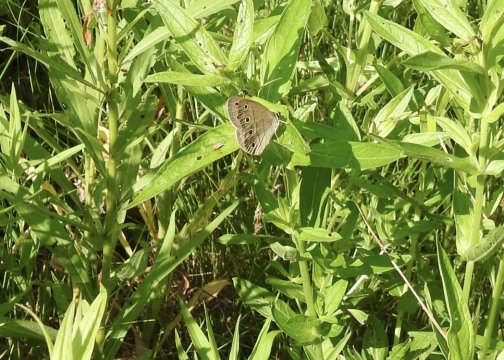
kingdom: Animalia
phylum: Arthropoda
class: Insecta
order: Lepidoptera
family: Nymphalidae
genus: Euptychia
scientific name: Euptychia cymela
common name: Little Wood Satyr
